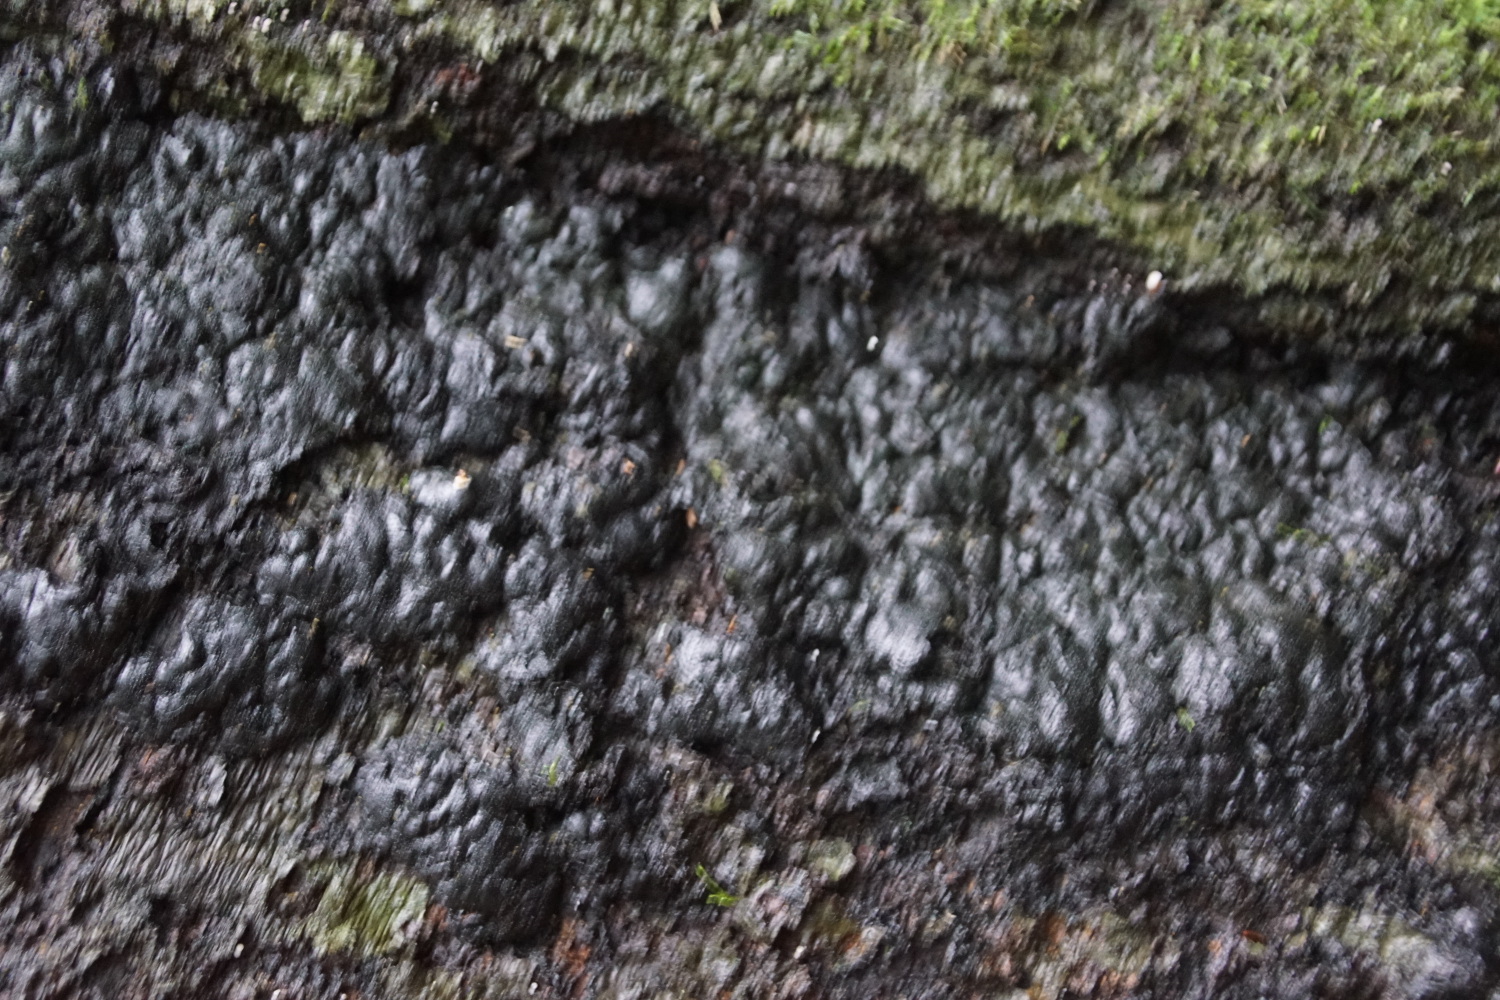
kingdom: Fungi
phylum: Ascomycota
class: Sordariomycetes
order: Xylariales
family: Xylariaceae
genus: Kretzschmaria
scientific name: Kretzschmaria deusta
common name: stor kulsvamp
